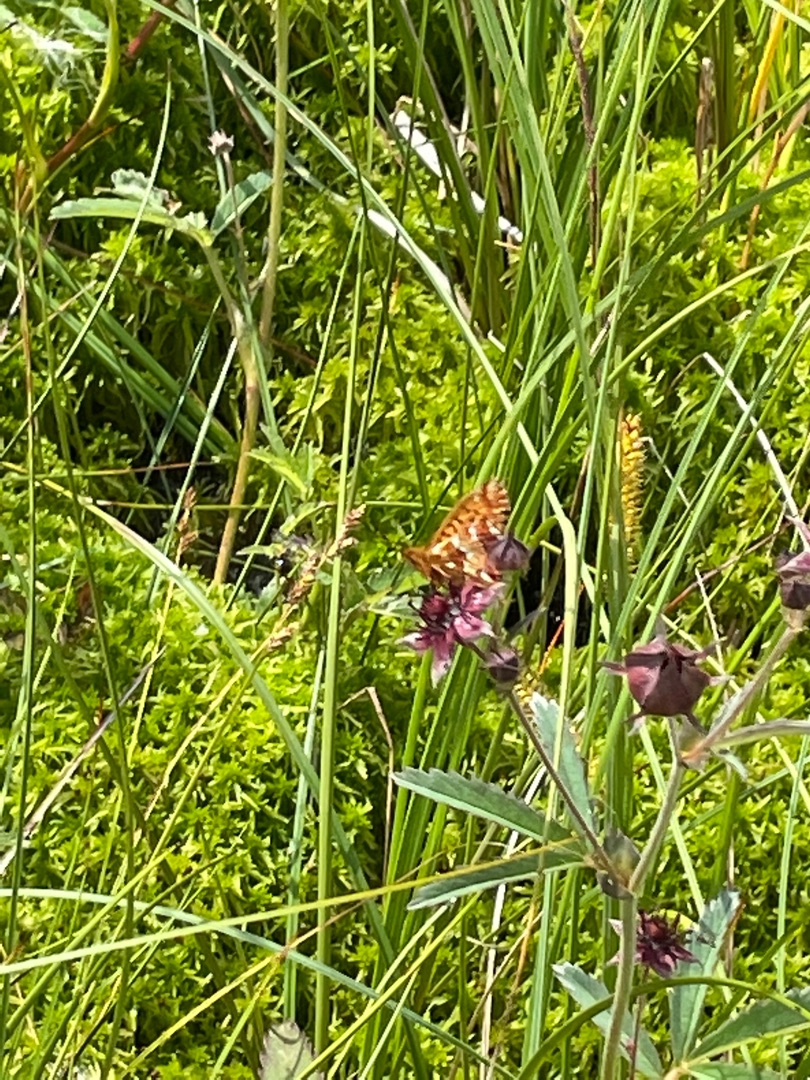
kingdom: Animalia
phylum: Arthropoda
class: Insecta
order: Lepidoptera
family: Nymphalidae
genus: Boloria
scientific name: Boloria aquilonaris
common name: Moseperlemorsommerfugl
